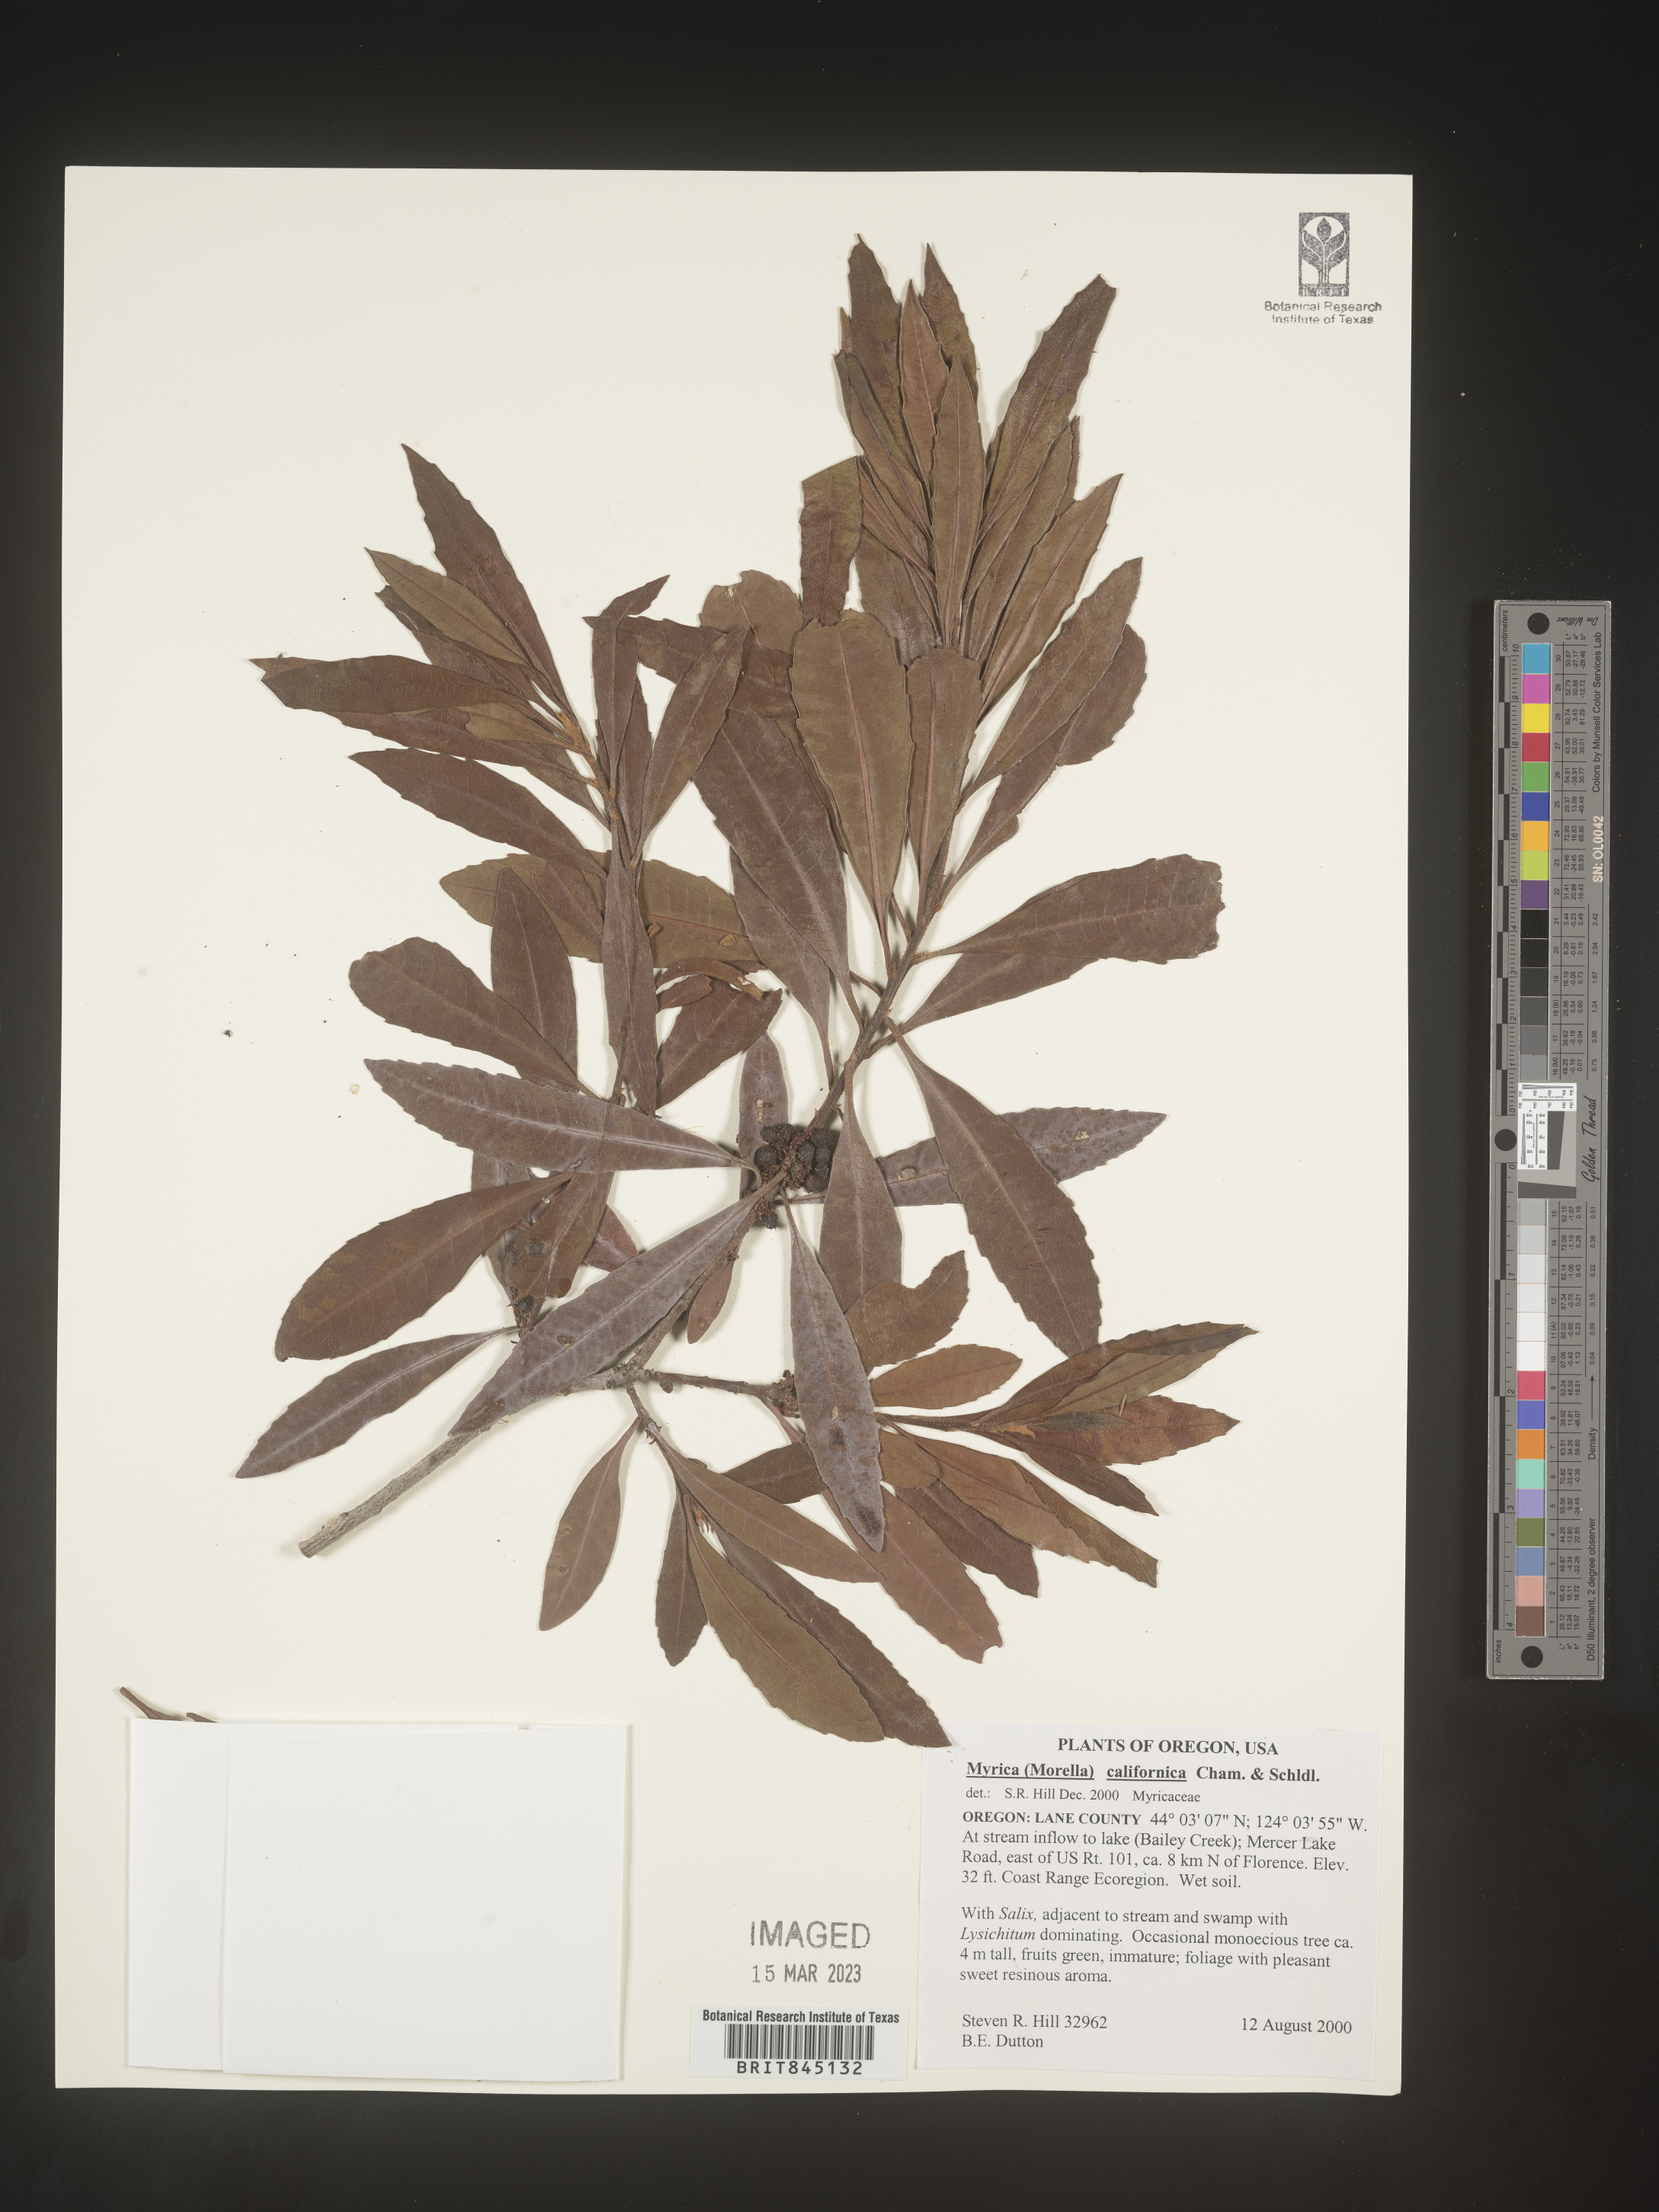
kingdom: Plantae
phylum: Tracheophyta
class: Magnoliopsida
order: Fagales
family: Myricaceae
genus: Morella
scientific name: Morella californica
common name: California wax-myrtle
